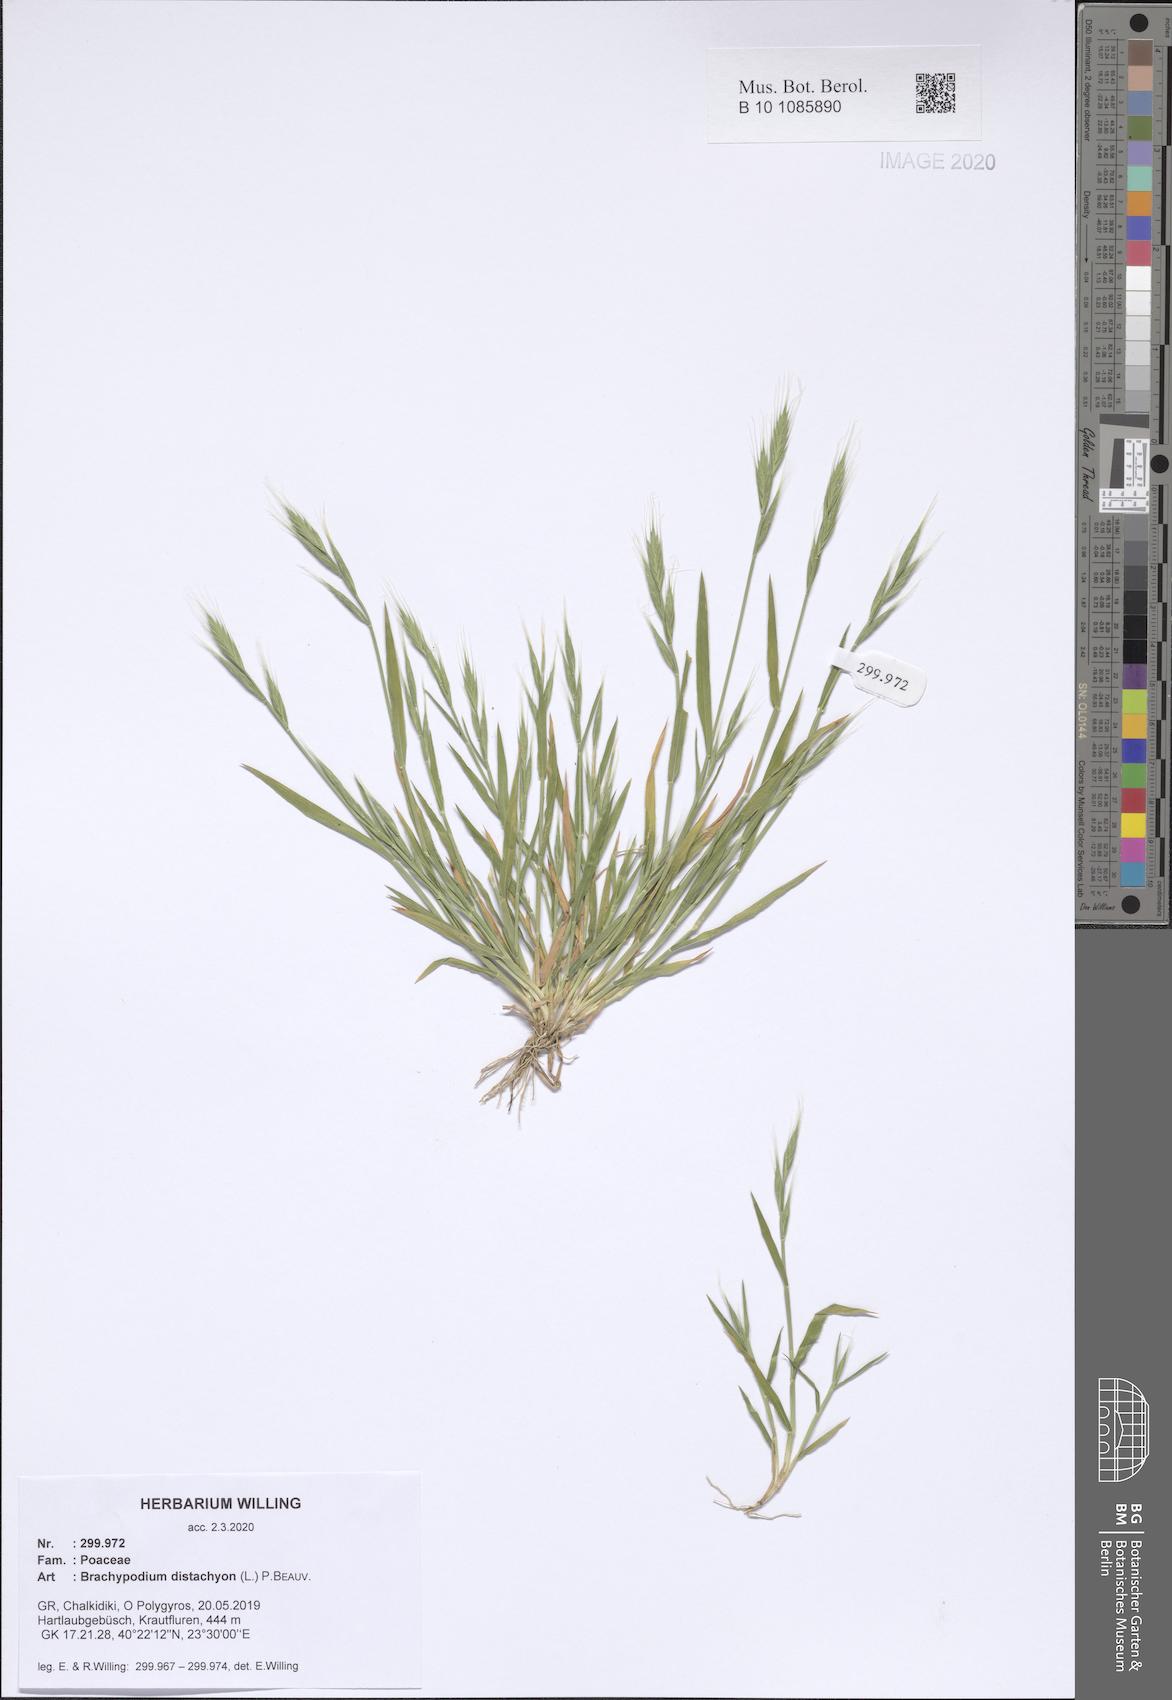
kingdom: Plantae
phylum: Tracheophyta
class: Liliopsida
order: Poales
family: Poaceae
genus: Brachypodium
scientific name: Brachypodium distachyon
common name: Stiff brome
